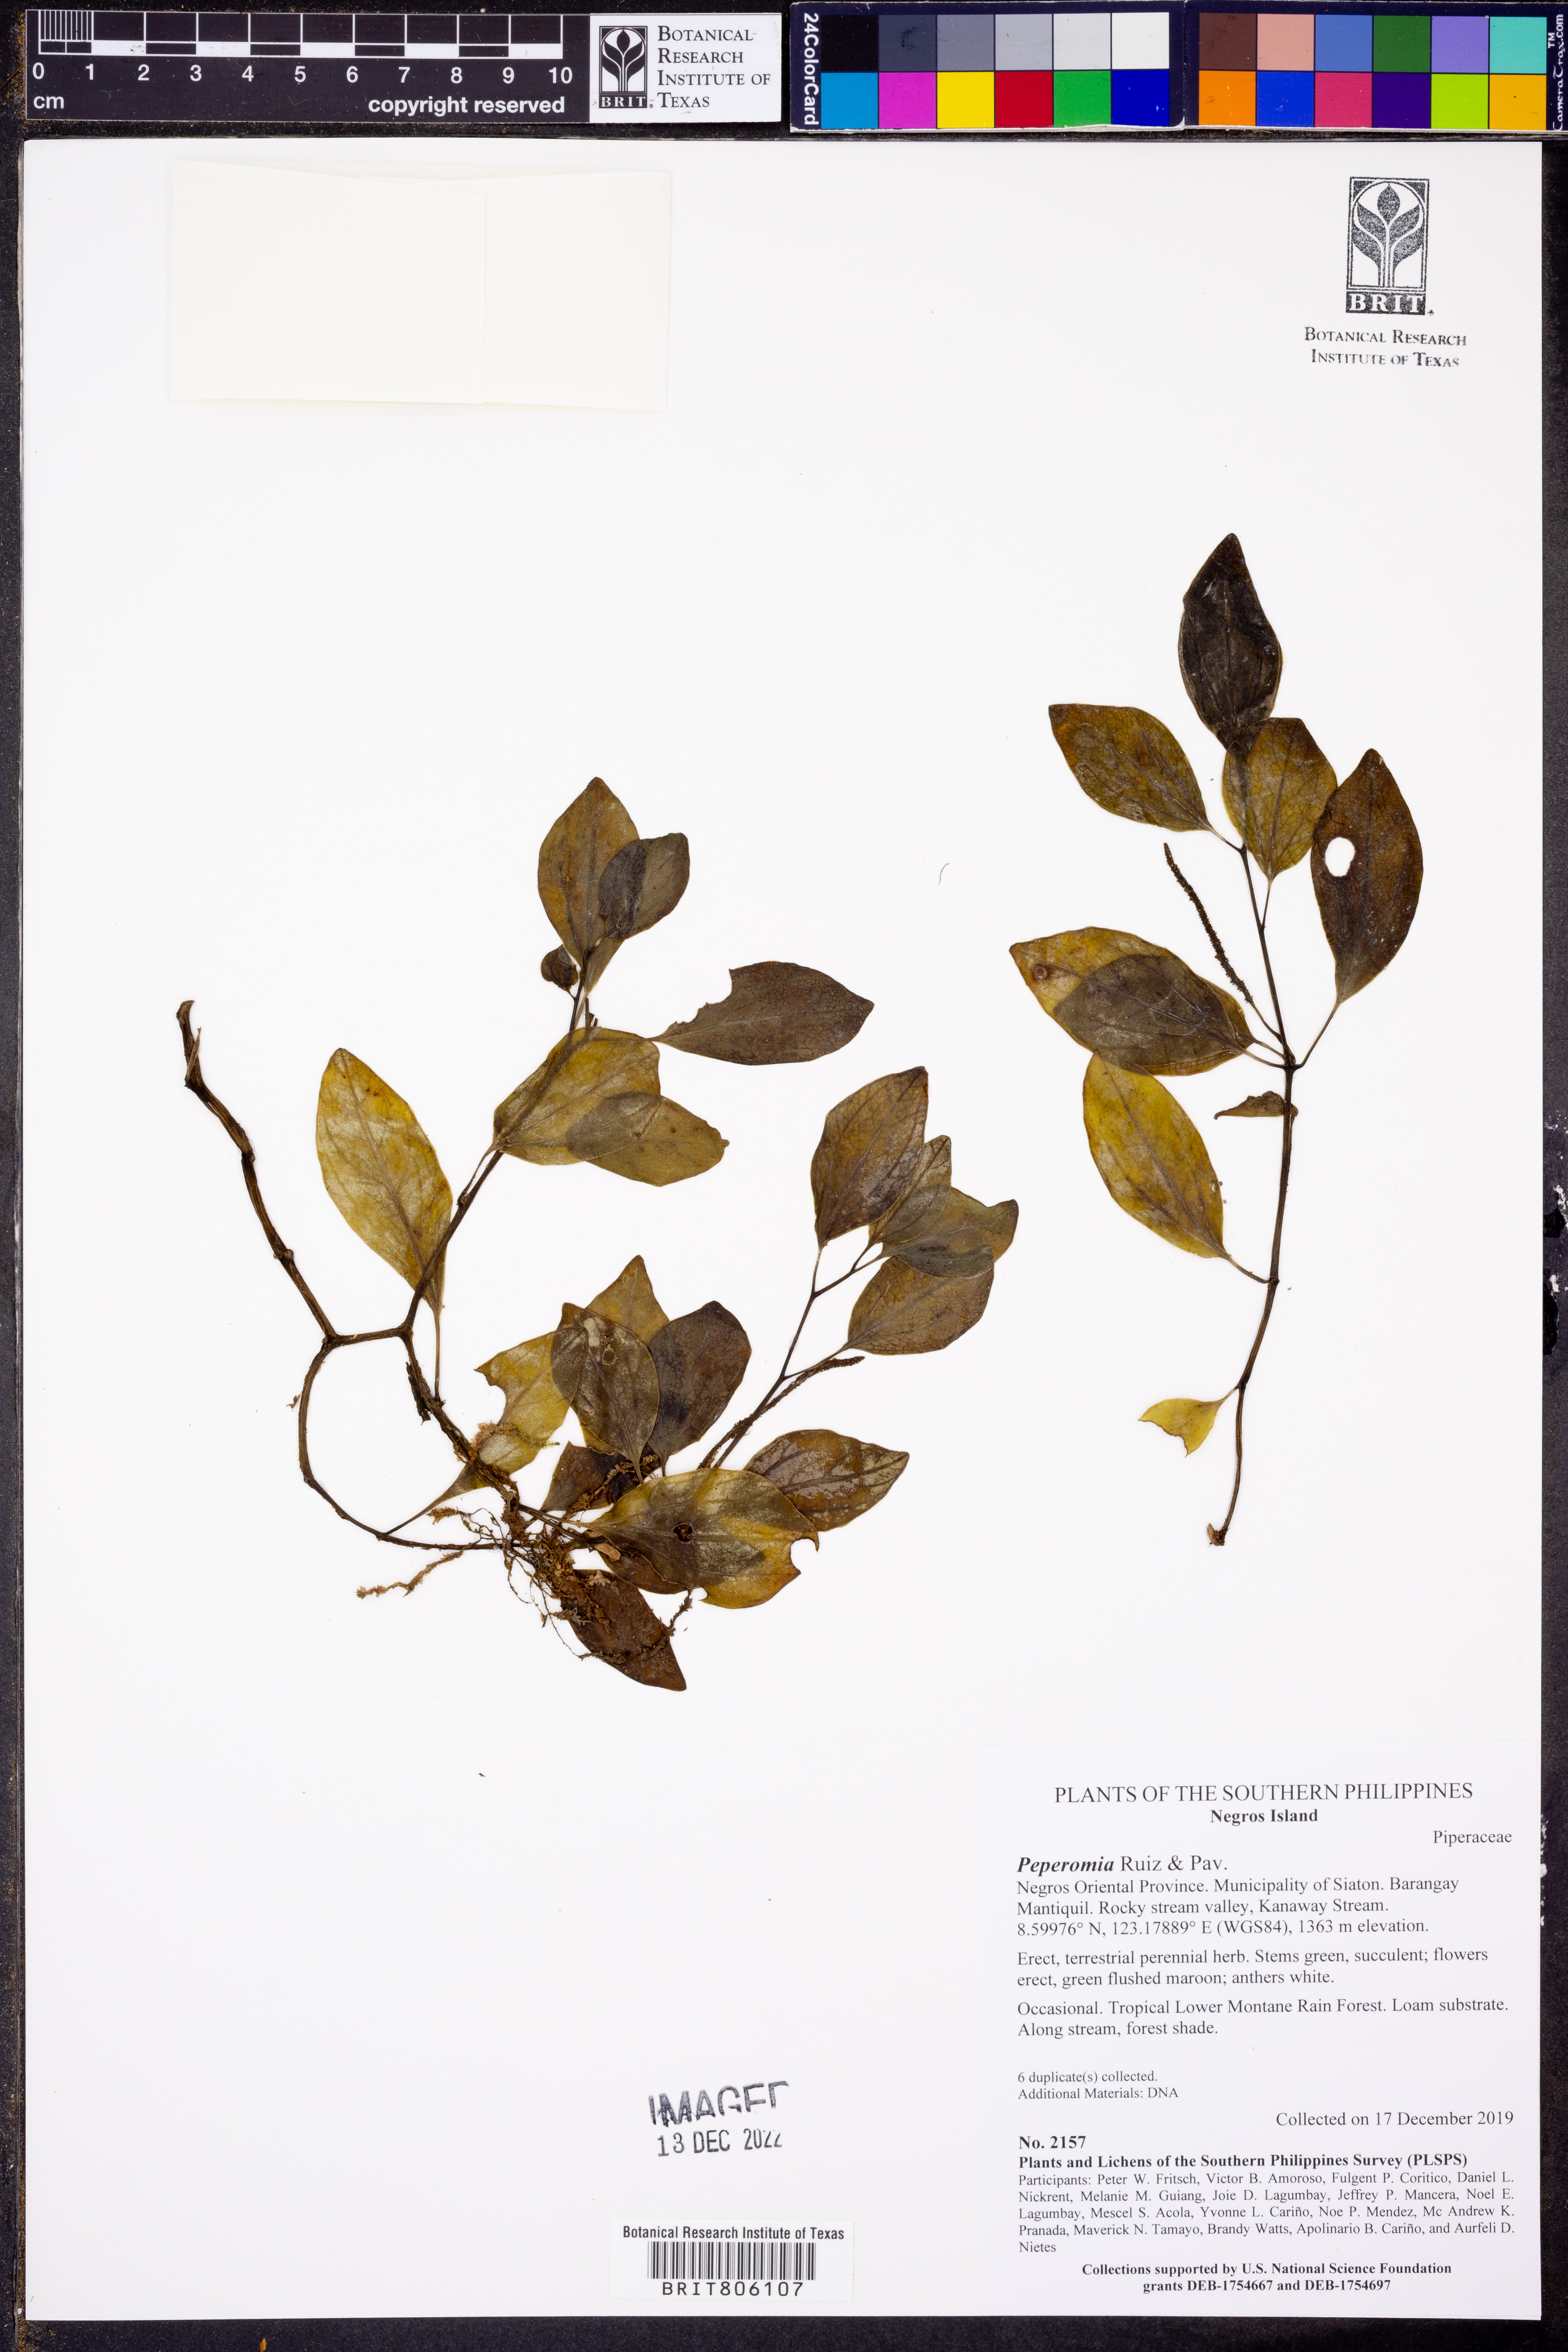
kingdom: Plantae
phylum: Tracheophyta
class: Magnoliopsida
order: Piperales
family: Piperaceae
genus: Peperomia
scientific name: Peperomia
